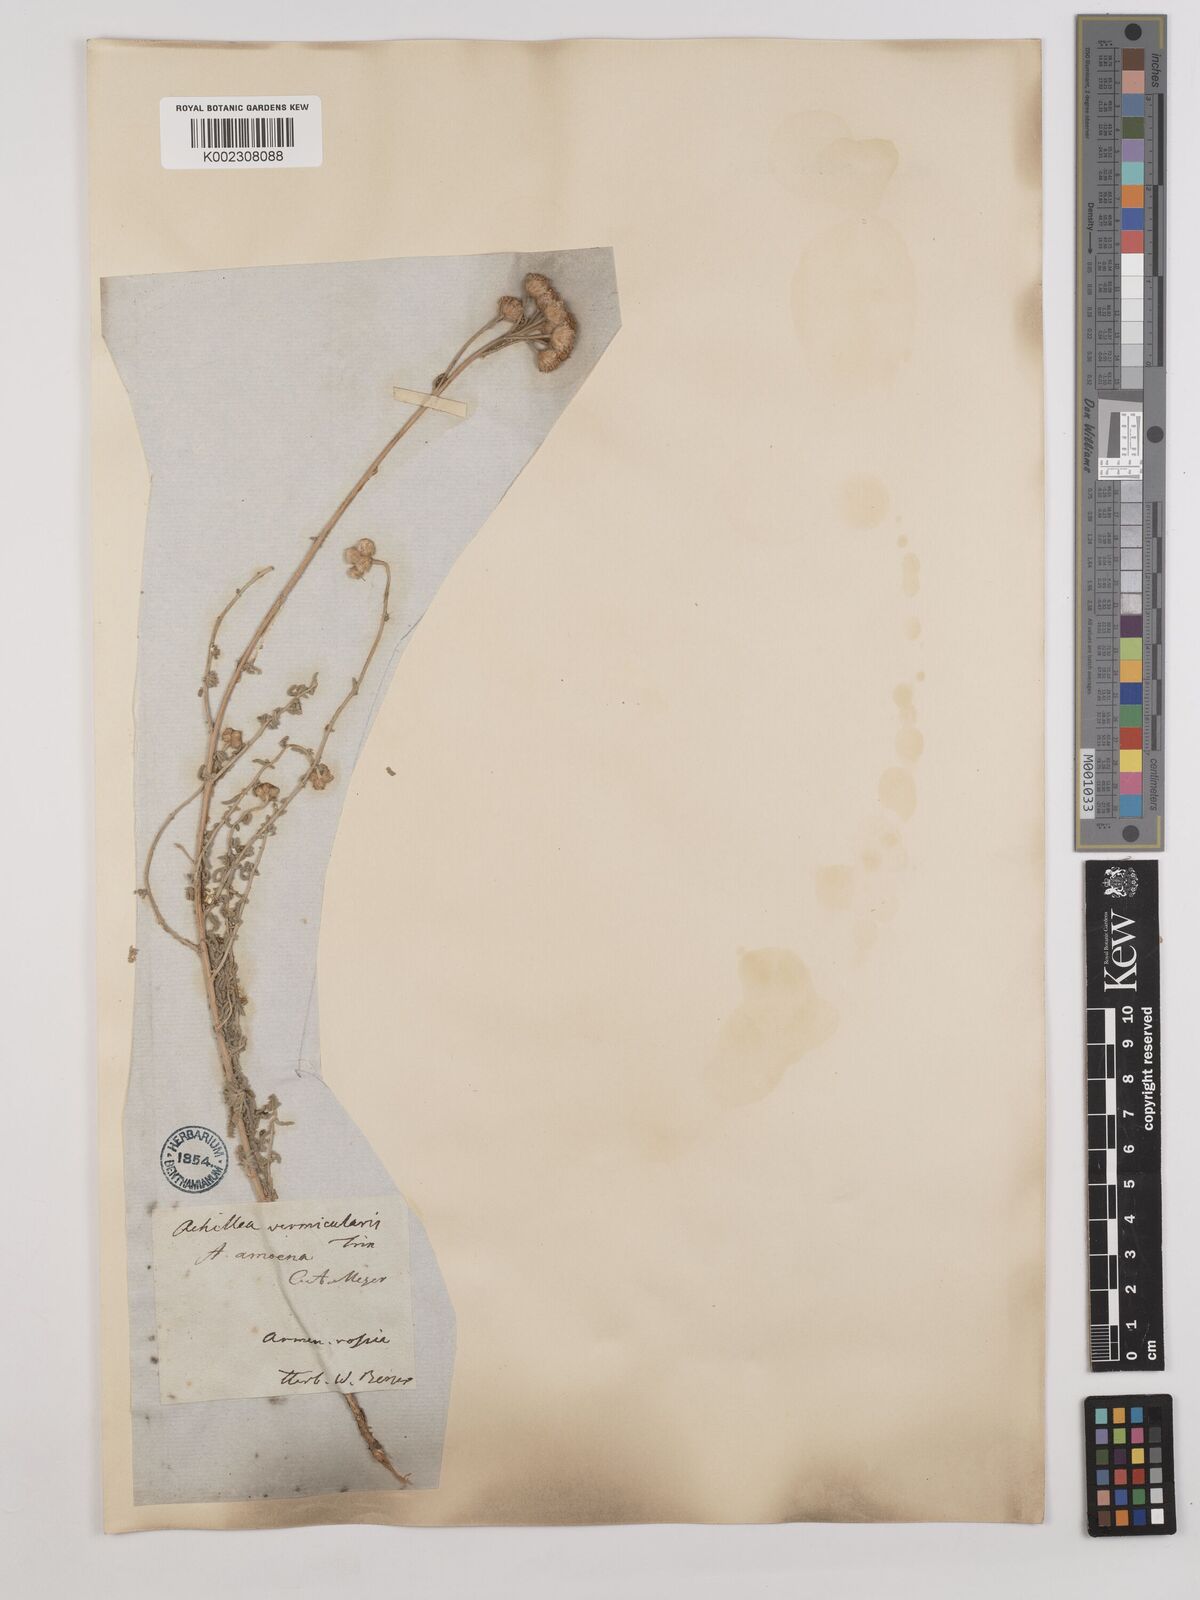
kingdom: Plantae
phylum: Tracheophyta
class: Magnoliopsida
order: Asterales
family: Asteraceae
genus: Achillea
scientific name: Achillea vermicularis
